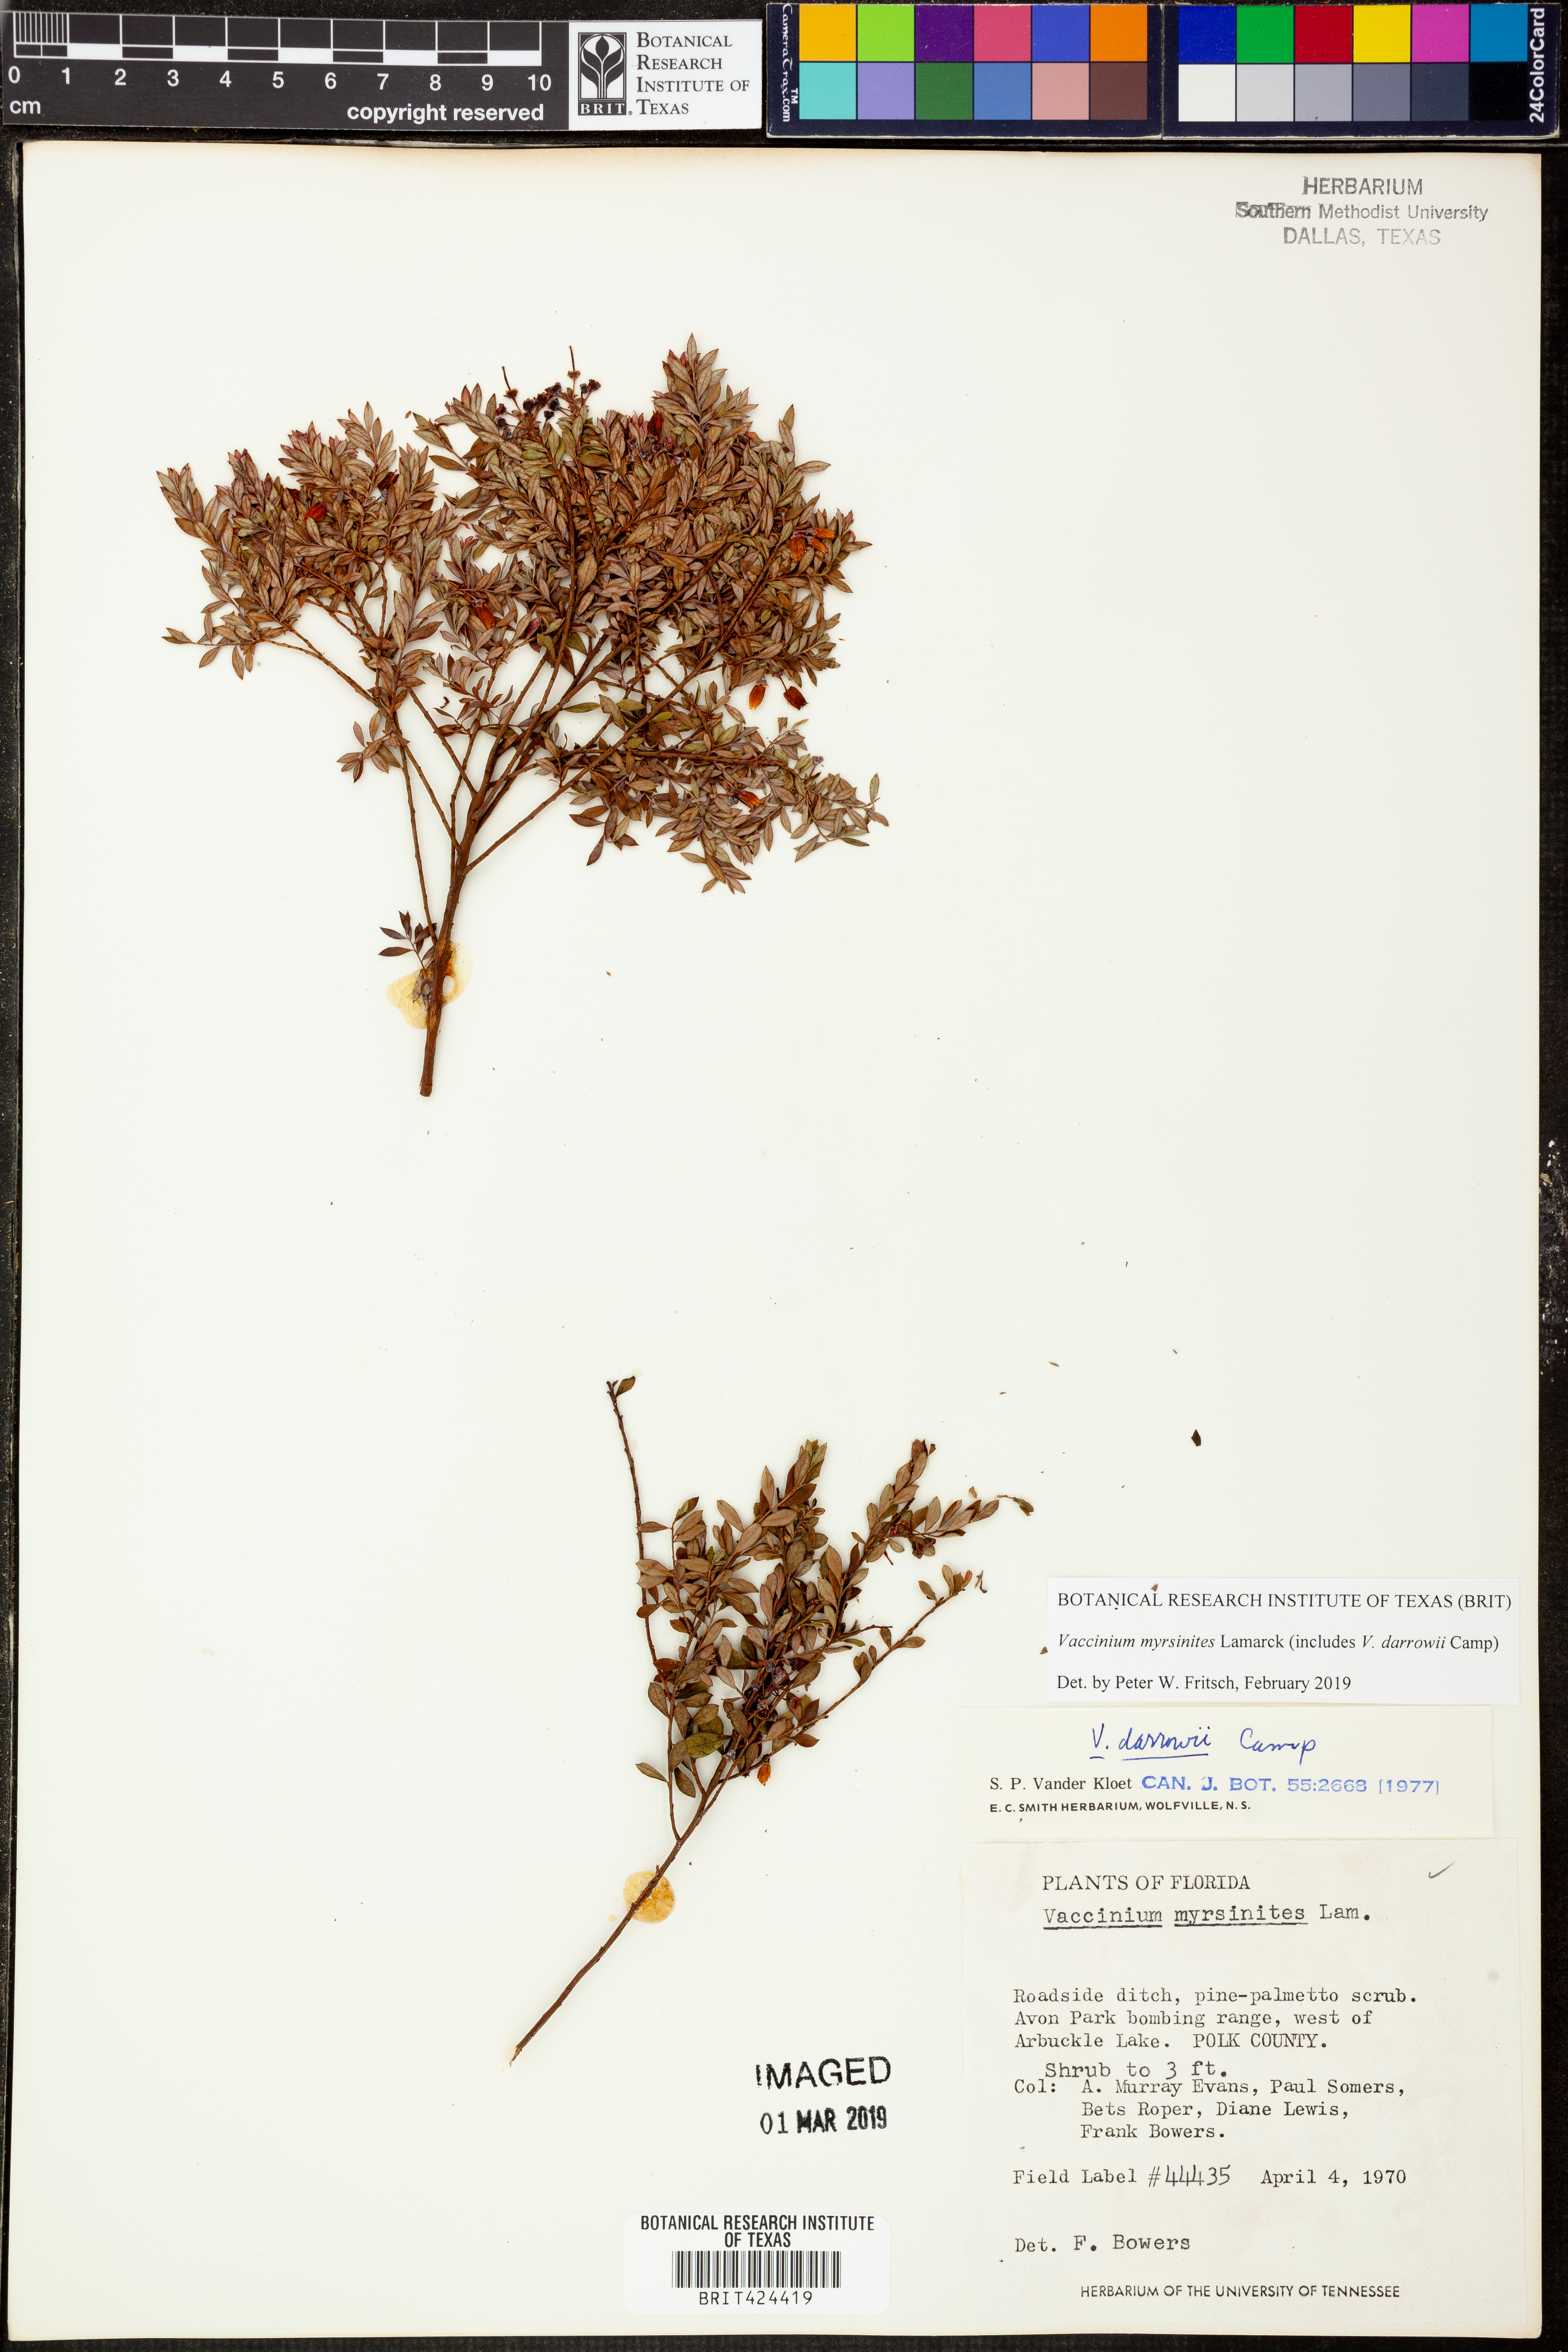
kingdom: Plantae
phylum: Tracheophyta
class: Magnoliopsida
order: Ericales
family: Ericaceae
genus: Vaccinium
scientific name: Vaccinium myrsinites
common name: Evergreen blueberry
